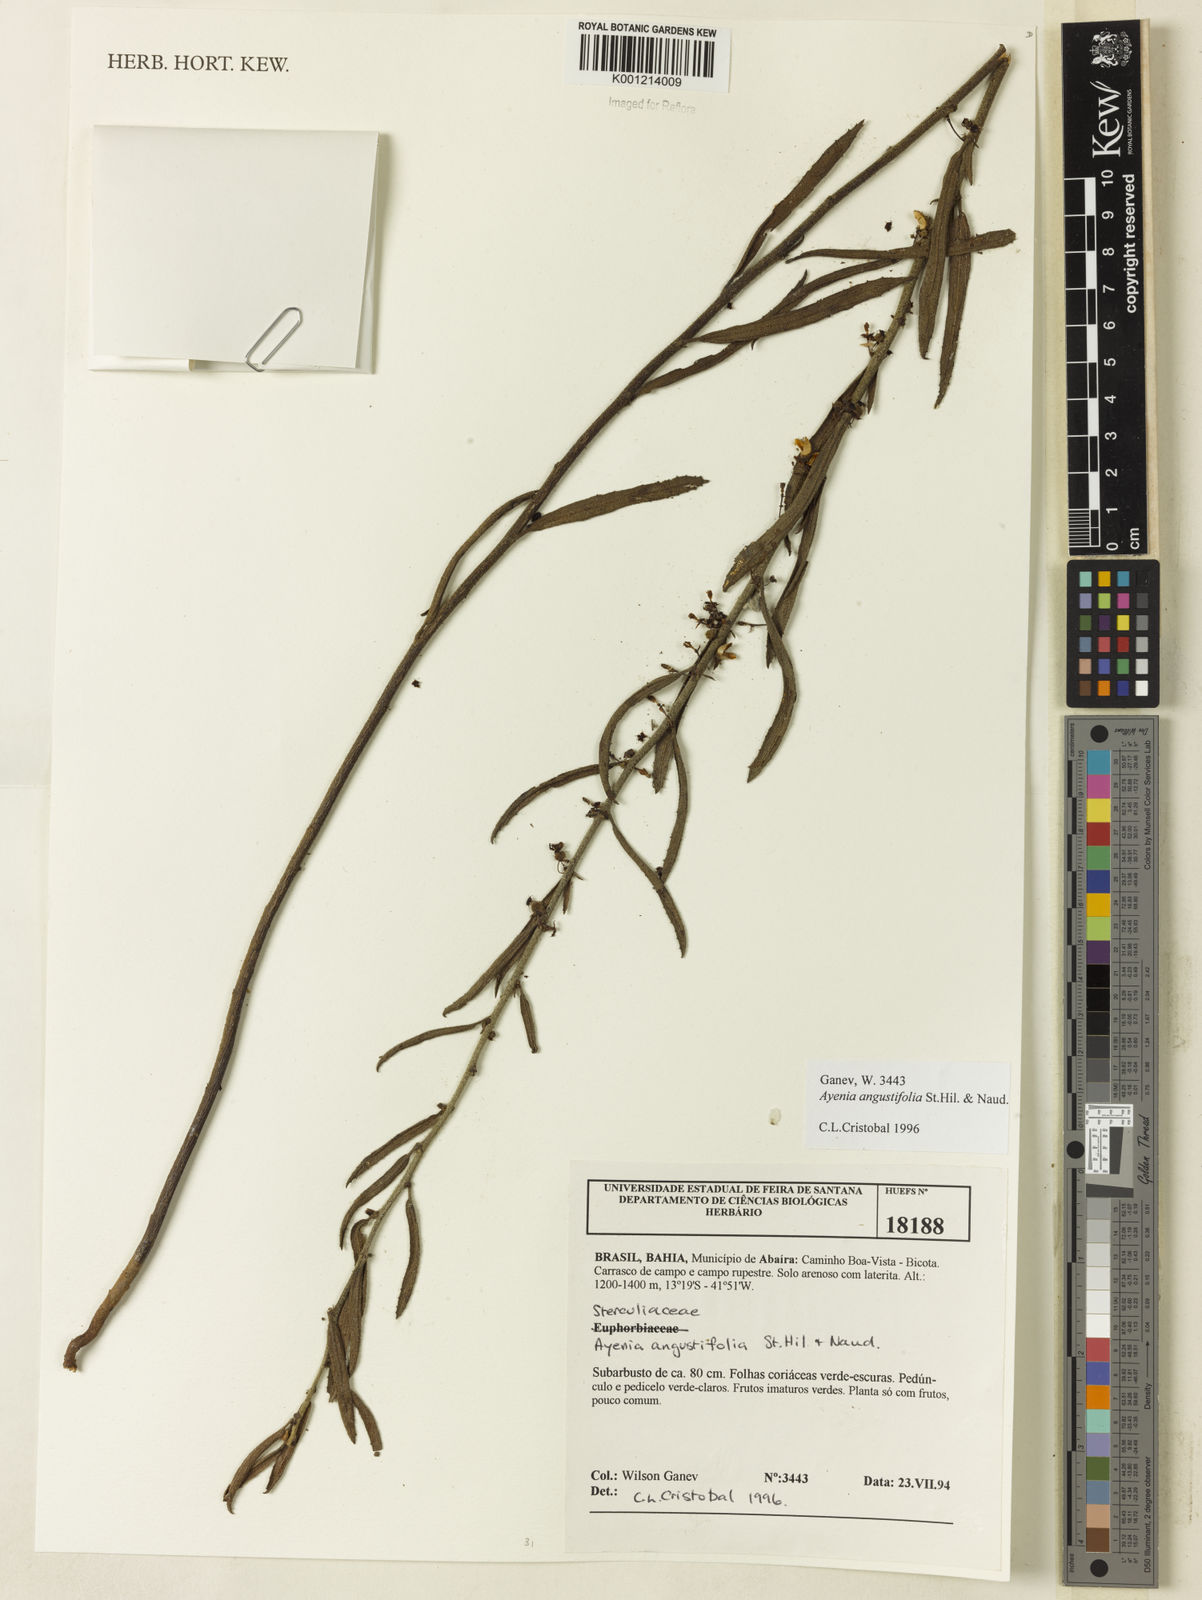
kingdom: Plantae
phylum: Tracheophyta
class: Magnoliopsida
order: Malvales
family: Malvaceae
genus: Ayenia
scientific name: Ayenia angustifolia
